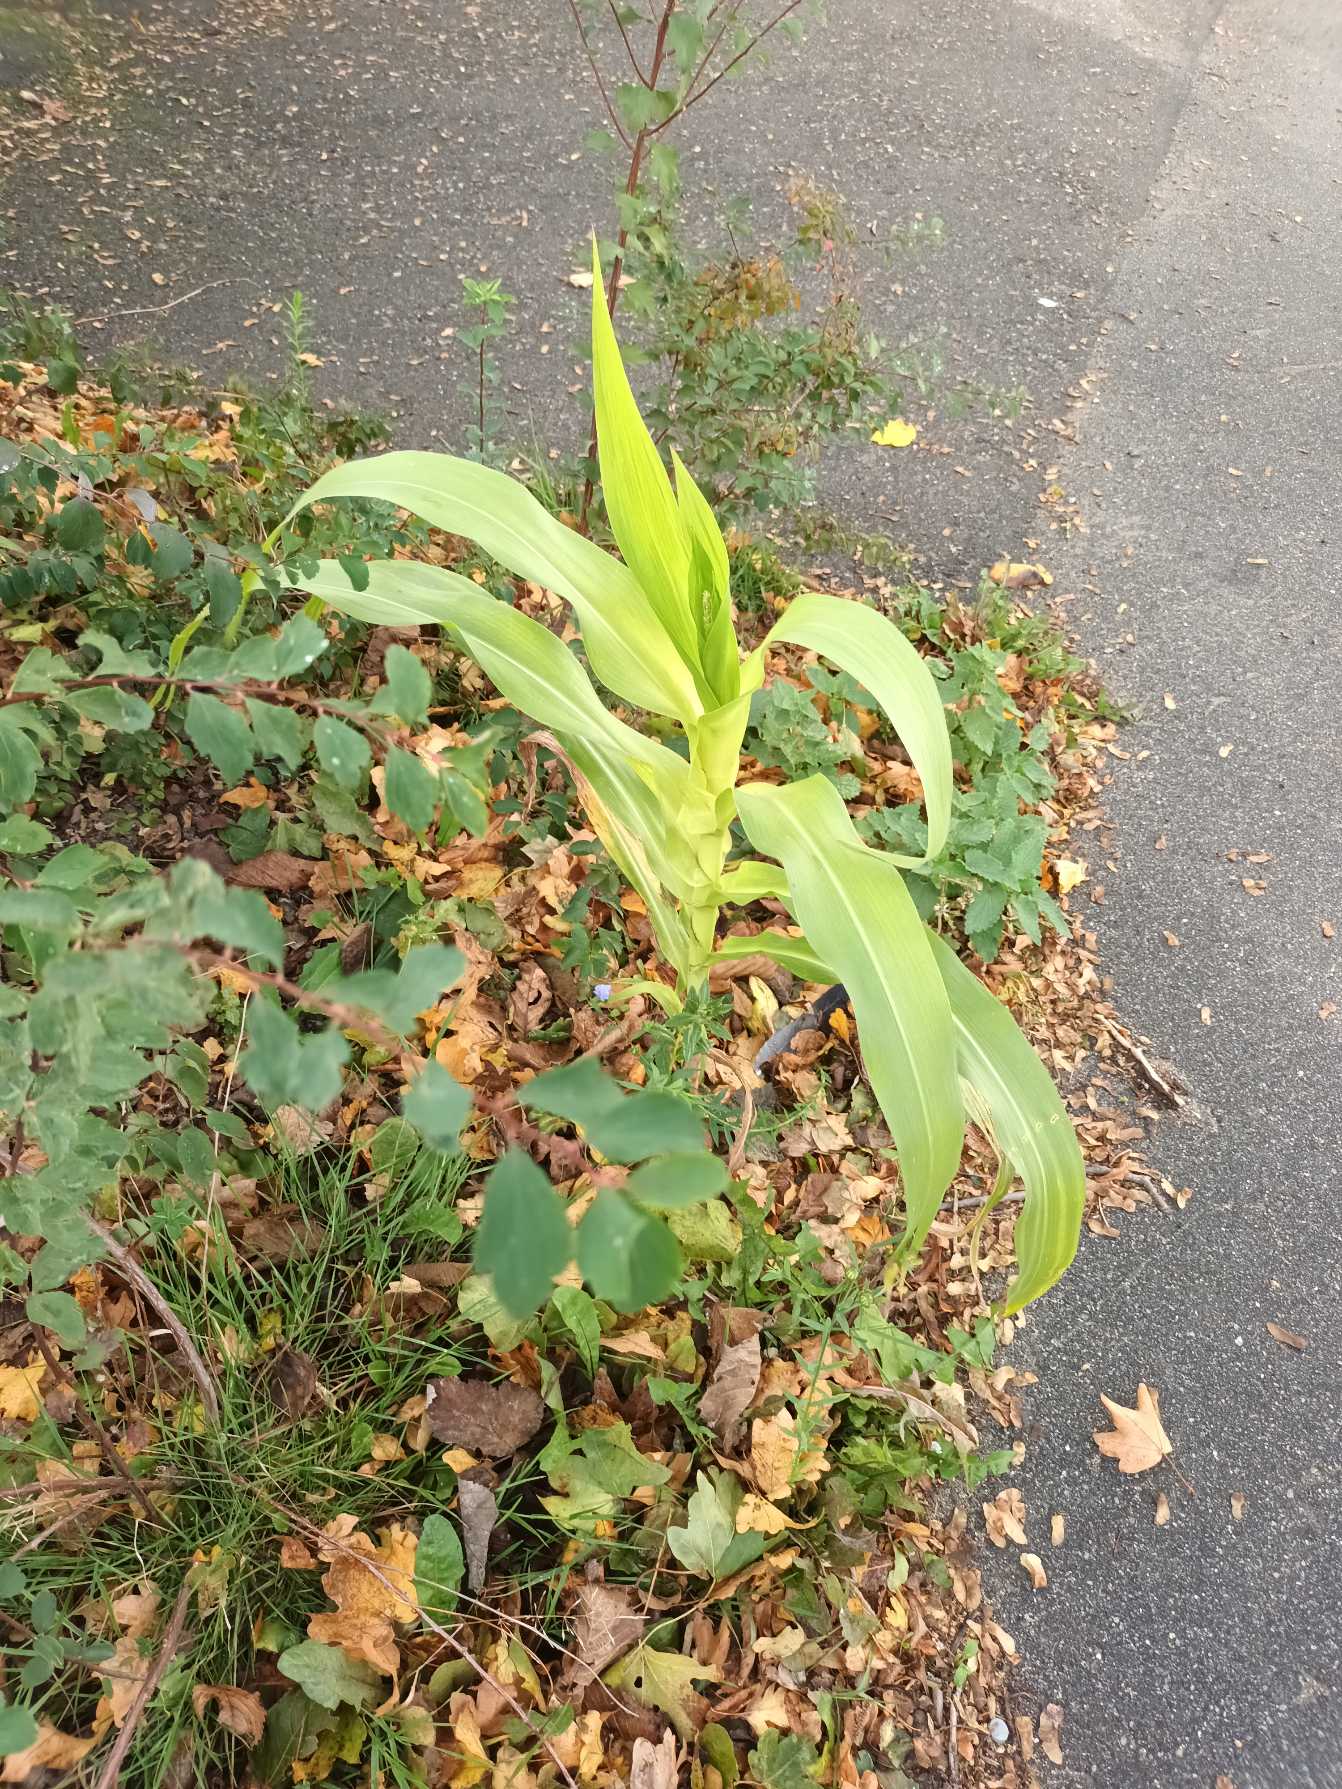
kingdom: Plantae
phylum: Tracheophyta
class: Liliopsida
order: Poales
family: Poaceae
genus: Zea
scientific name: Zea mays
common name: Majs
